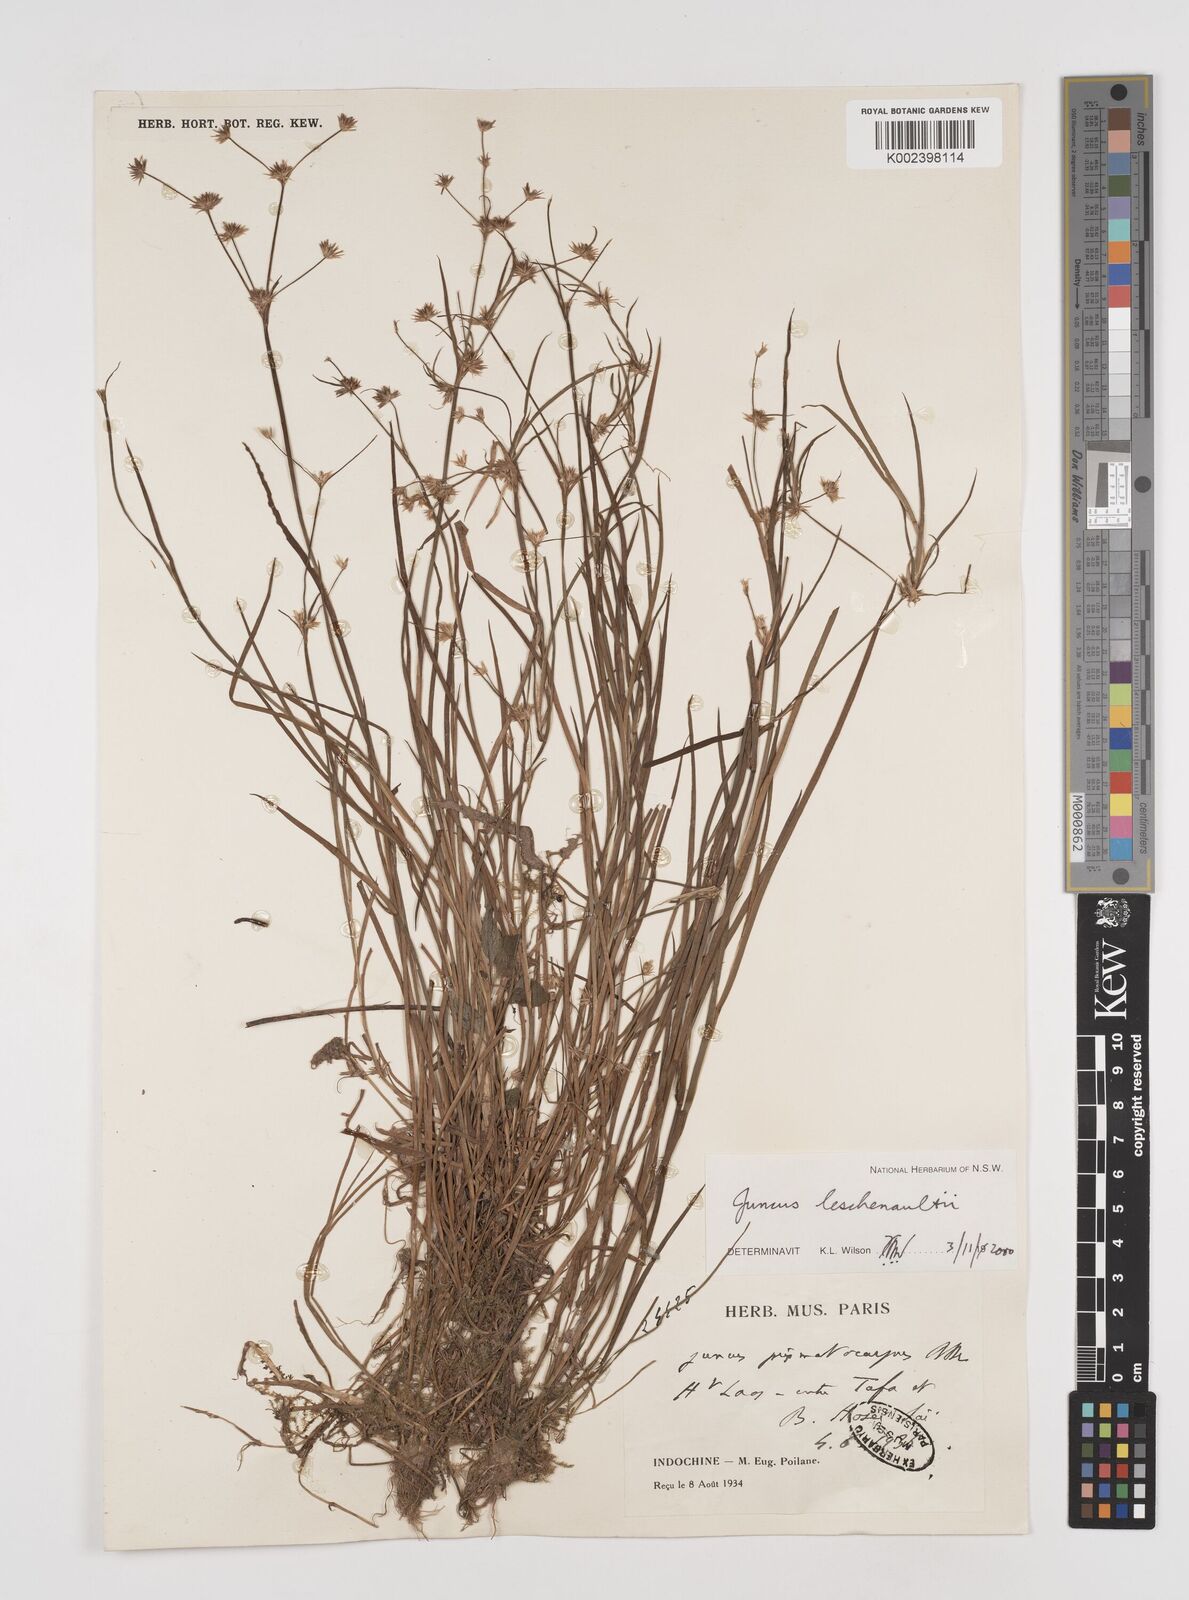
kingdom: Plantae
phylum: Tracheophyta
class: Liliopsida
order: Poales
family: Juncaceae
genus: Juncus
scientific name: Juncus prismatocarpus
